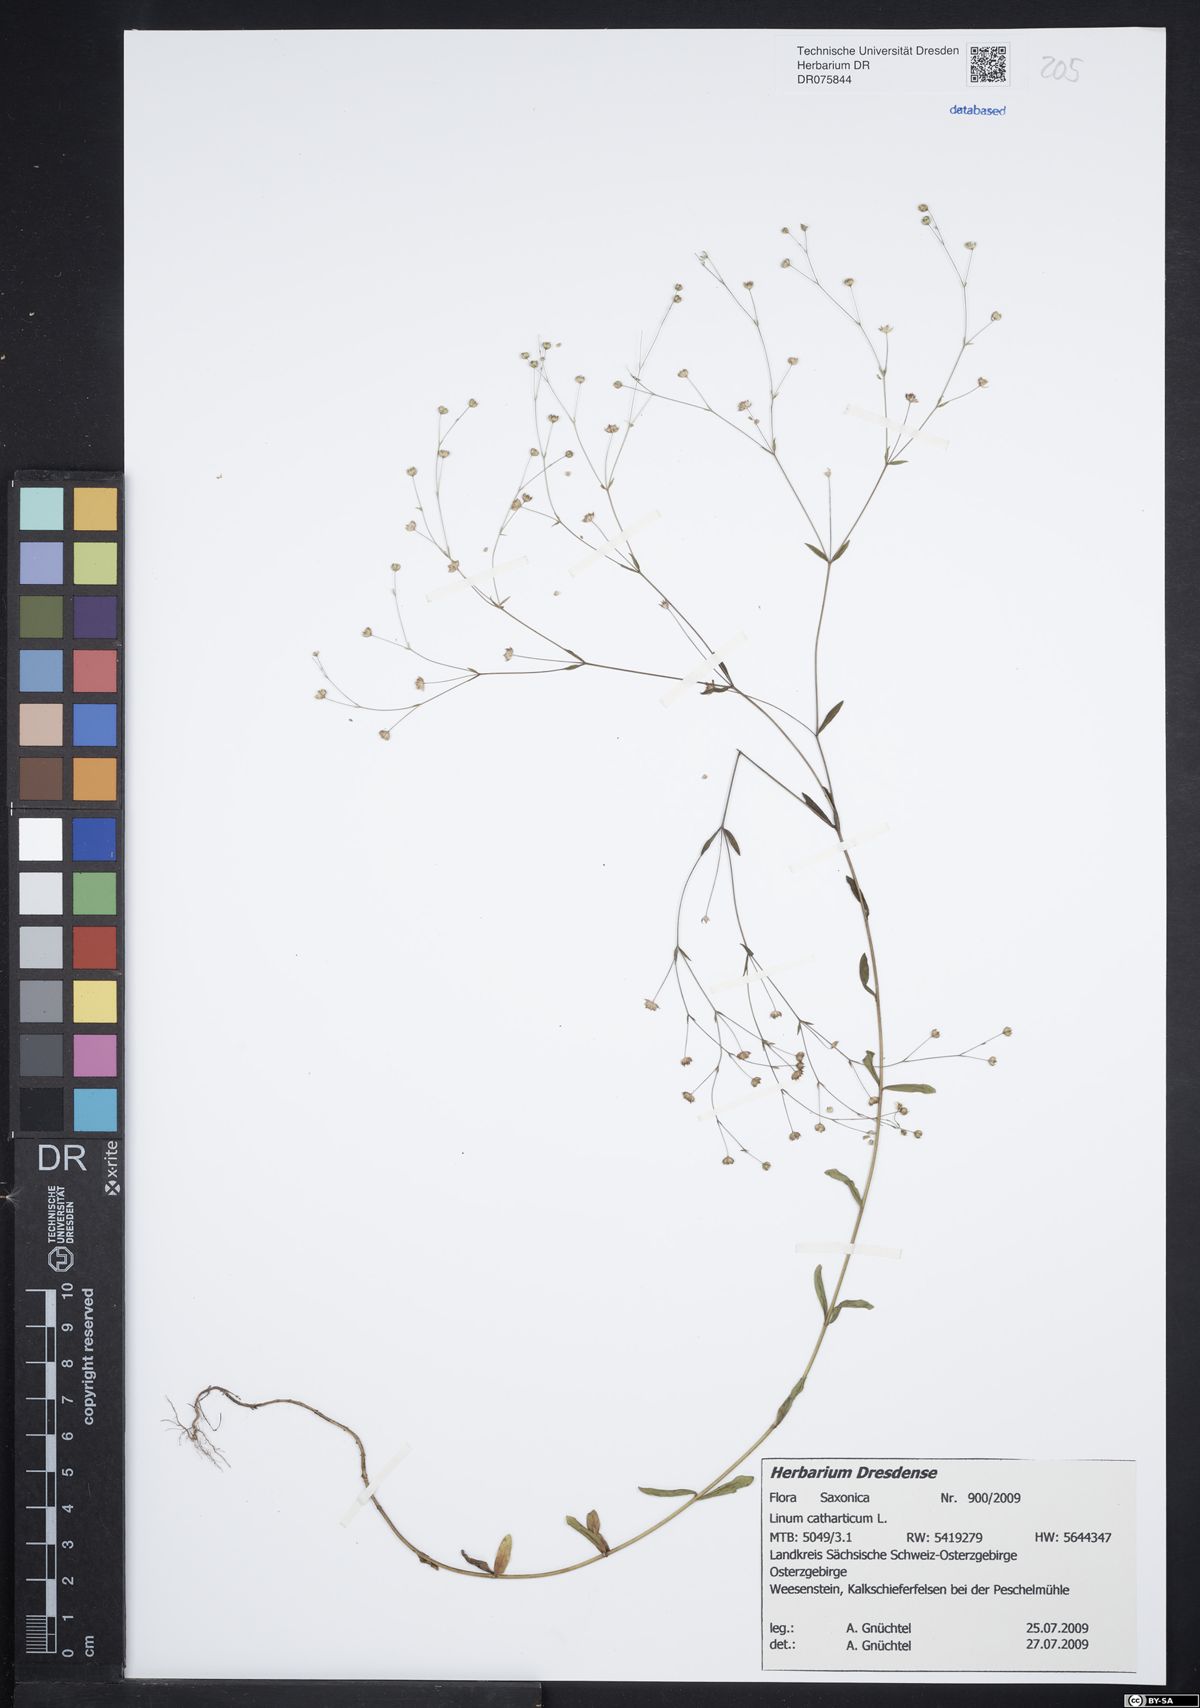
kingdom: Plantae
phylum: Tracheophyta
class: Magnoliopsida
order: Malpighiales
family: Linaceae
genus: Linum
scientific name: Linum catharticum
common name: Fairy flax
